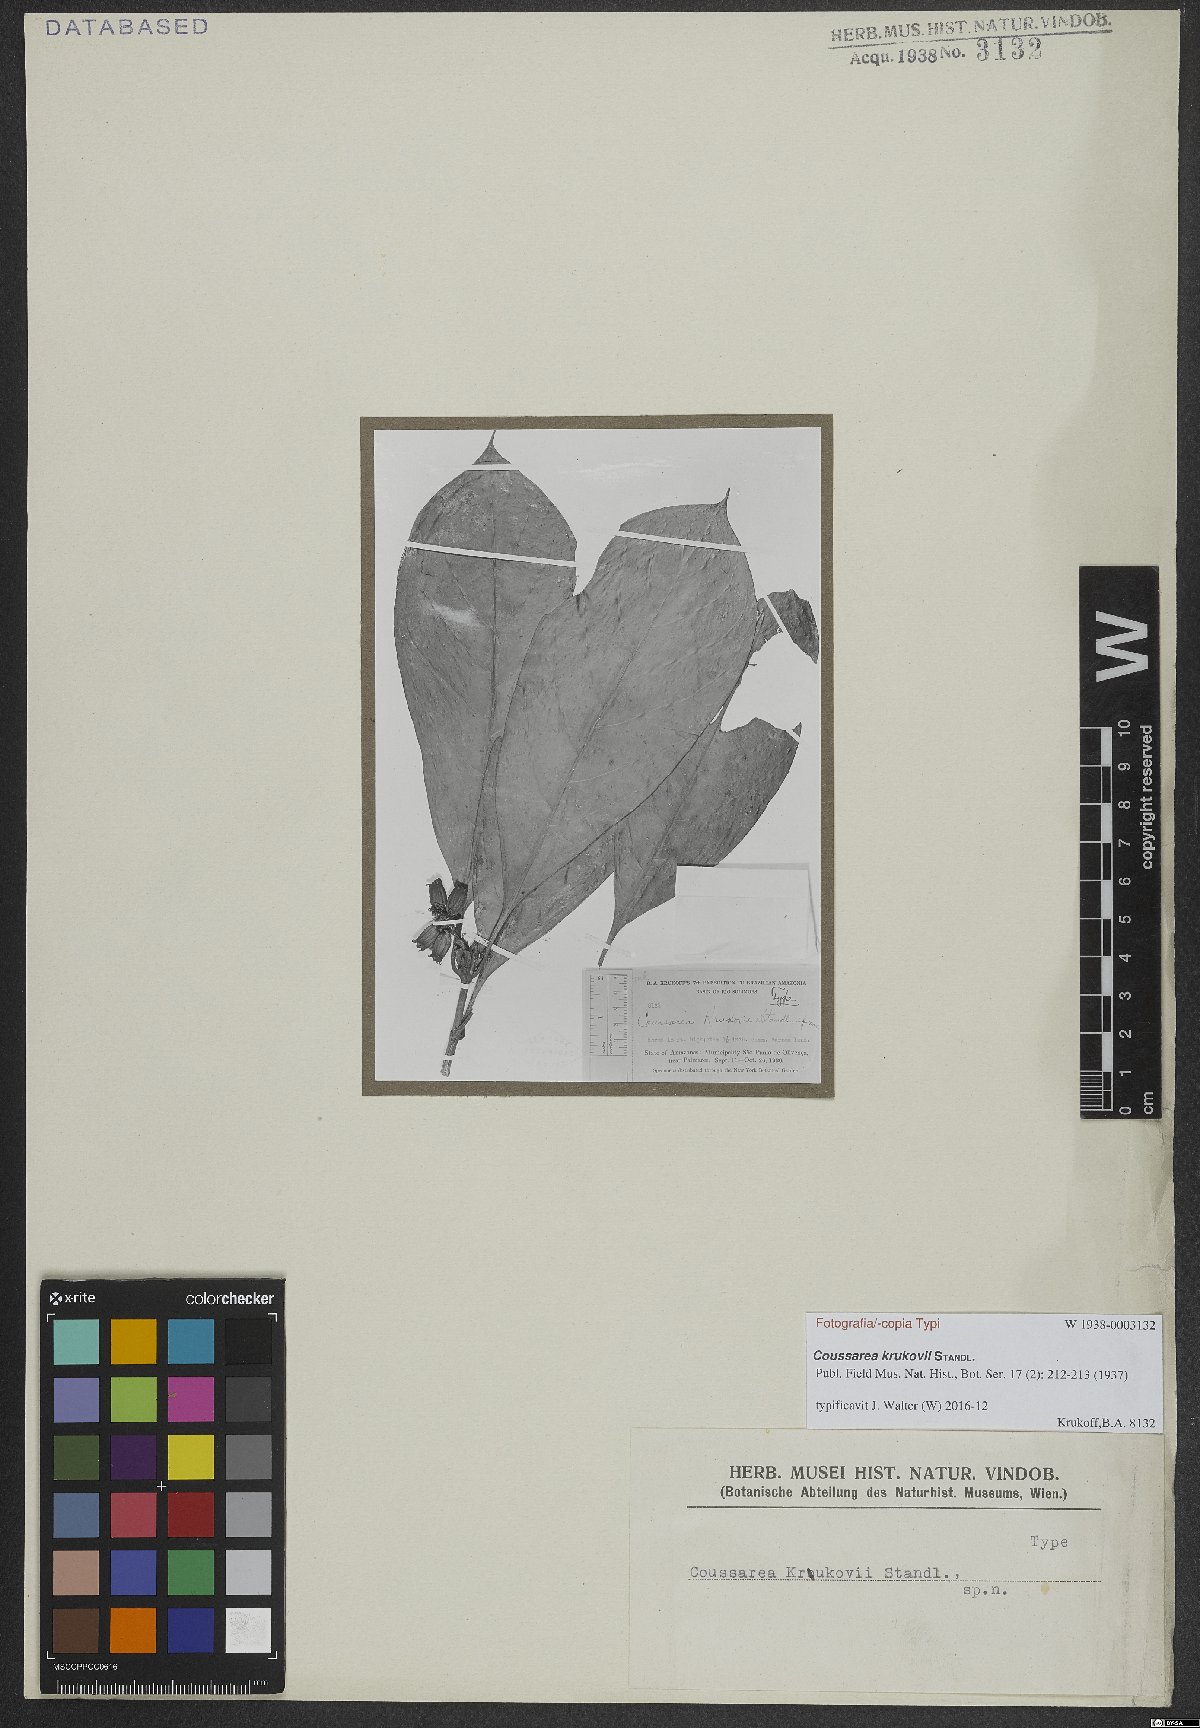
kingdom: Plantae
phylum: Tracheophyta
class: Magnoliopsida
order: Gentianales
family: Rubiaceae
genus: Coussarea
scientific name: Coussarea krukovii
